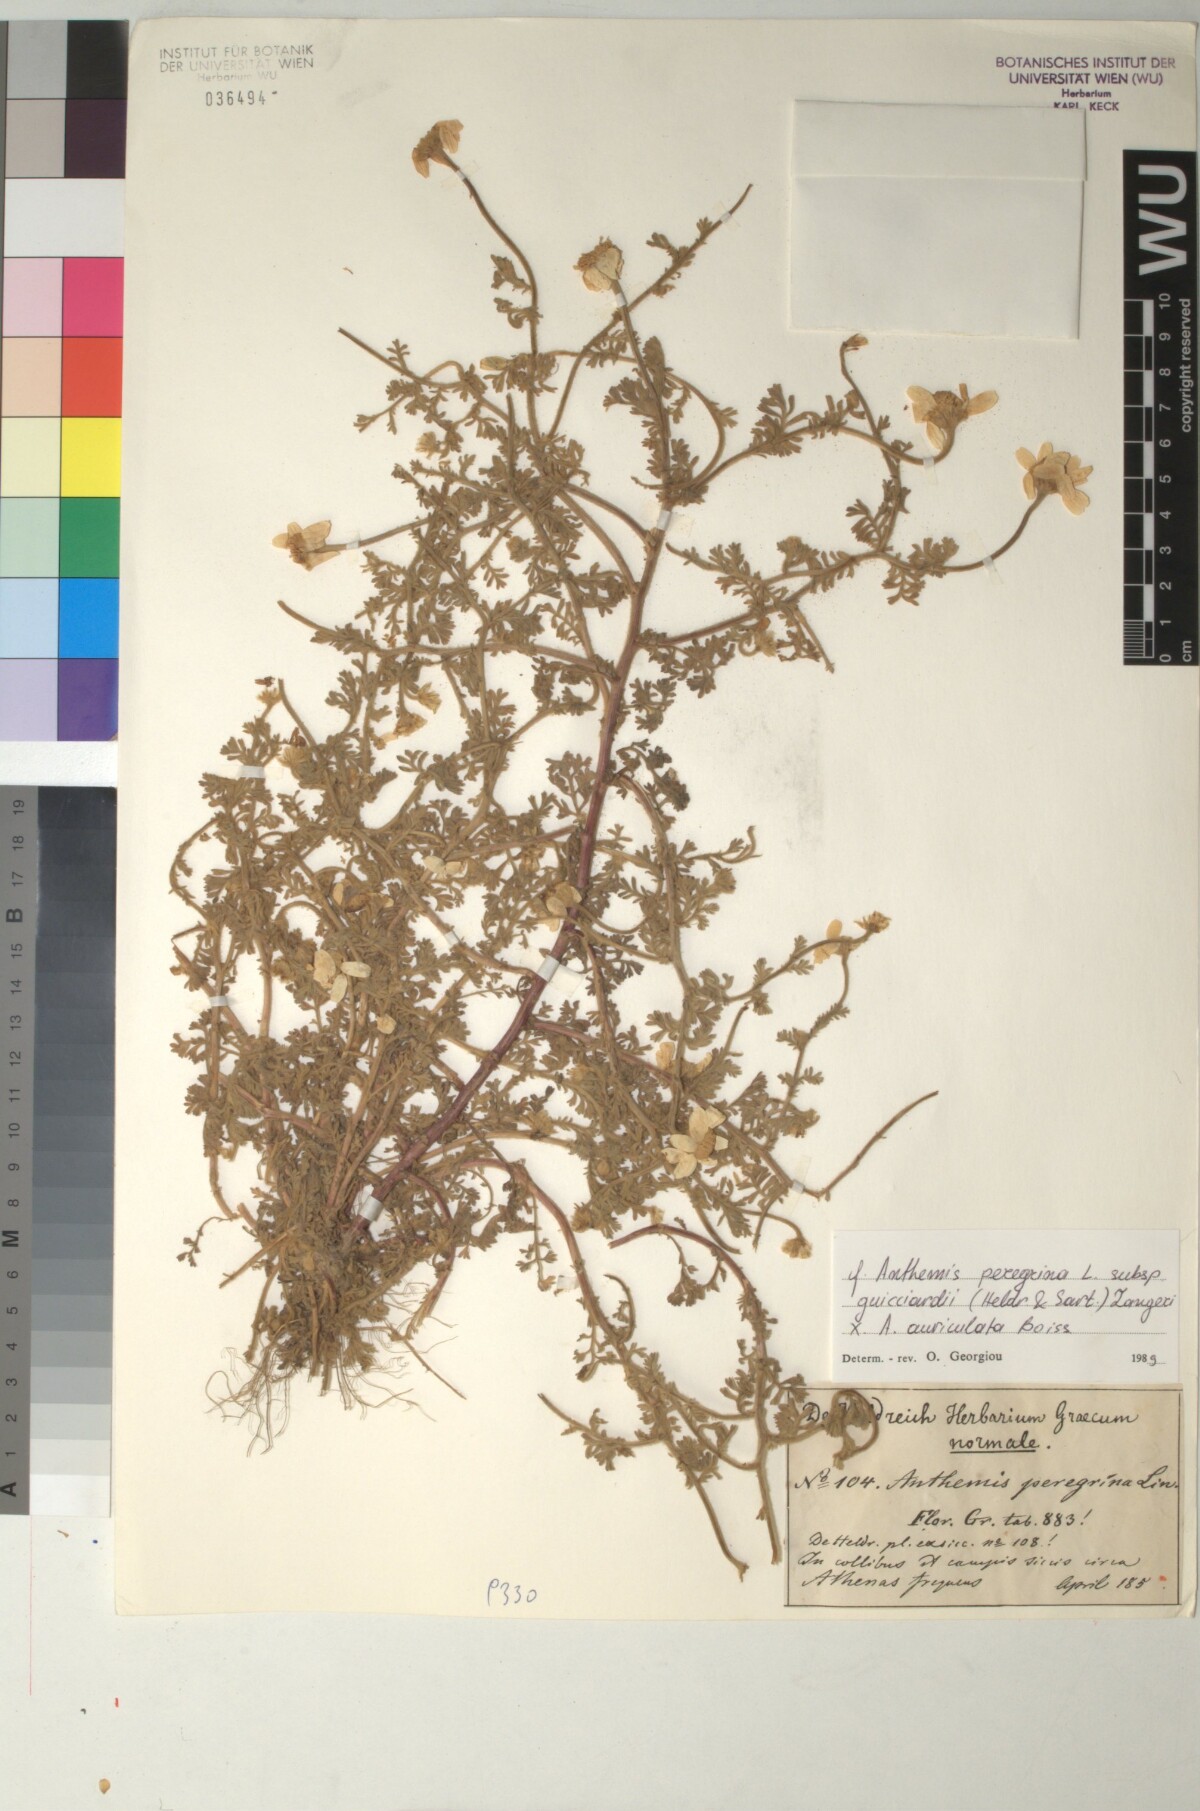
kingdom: Plantae
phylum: Tracheophyta
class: Magnoliopsida
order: Asterales
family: Asteraceae
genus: Anthemis
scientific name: Anthemis tomentosa
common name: Woolly chamomile
